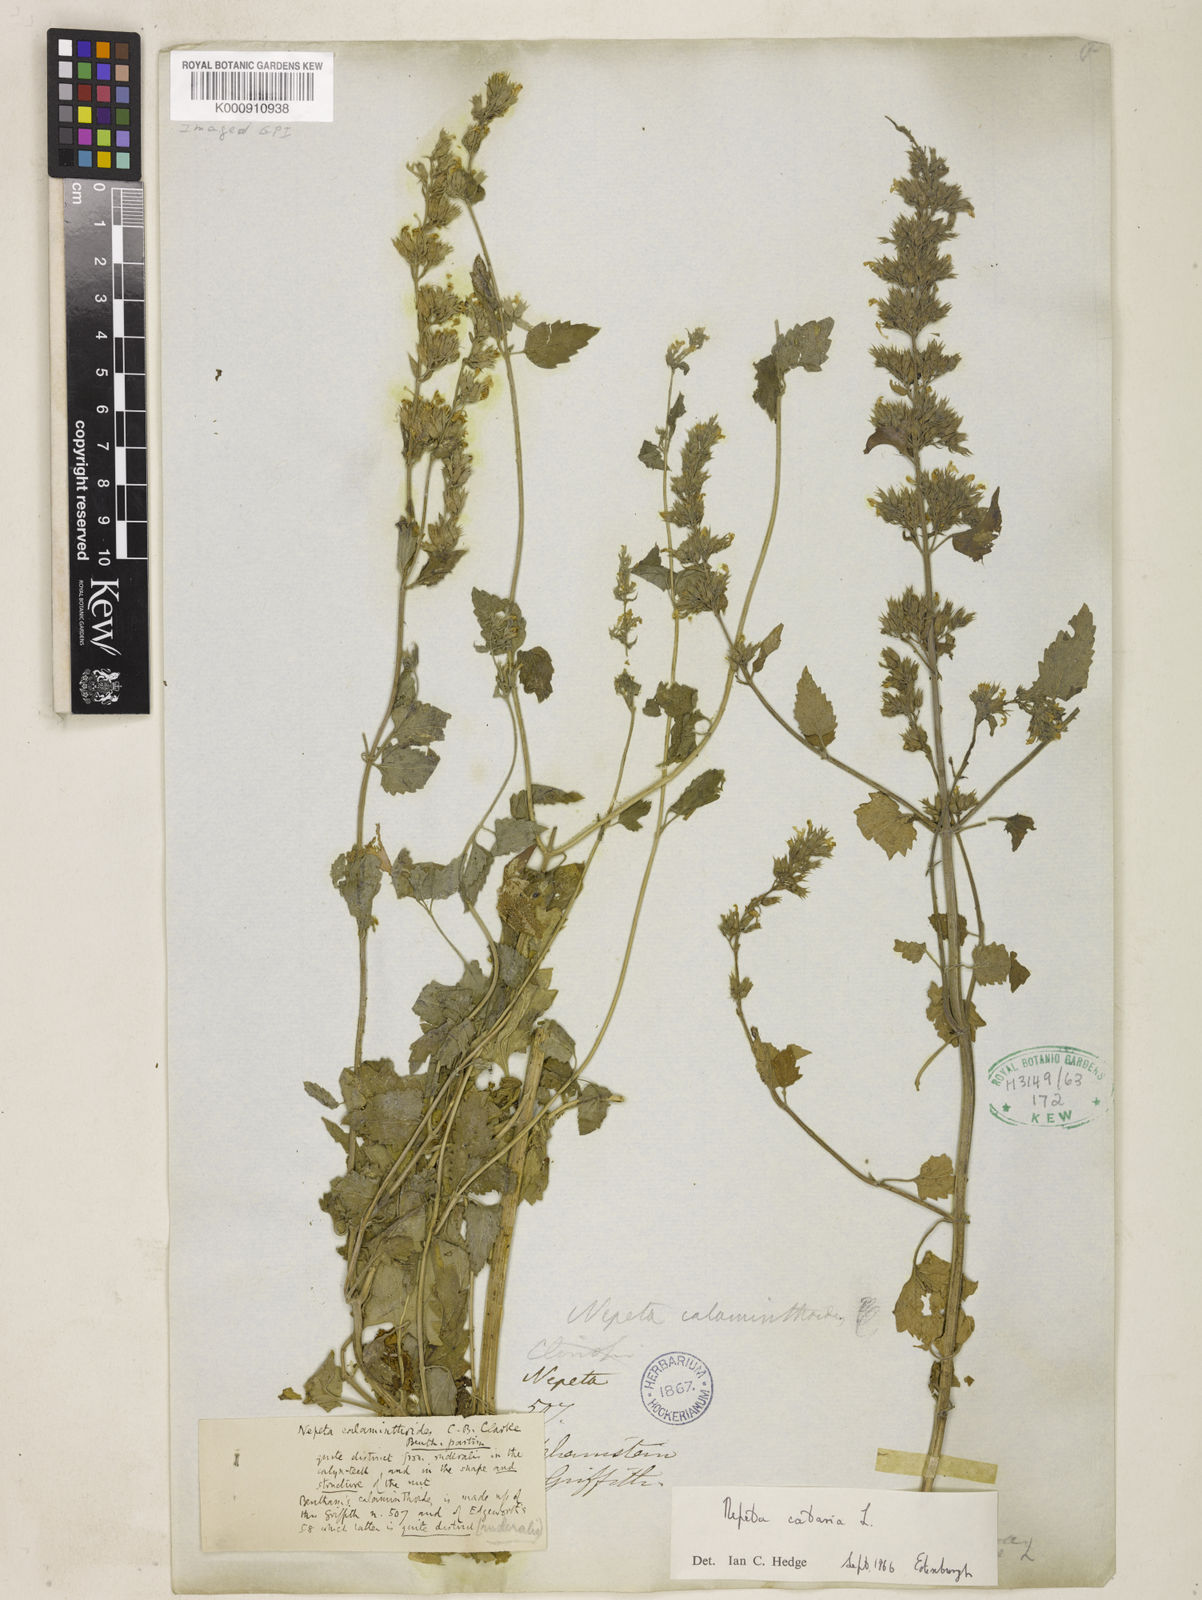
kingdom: Plantae
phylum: Tracheophyta
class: Magnoliopsida
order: Lamiales
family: Lamiaceae
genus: Nepeta
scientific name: Nepeta cataria
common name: Catnip
